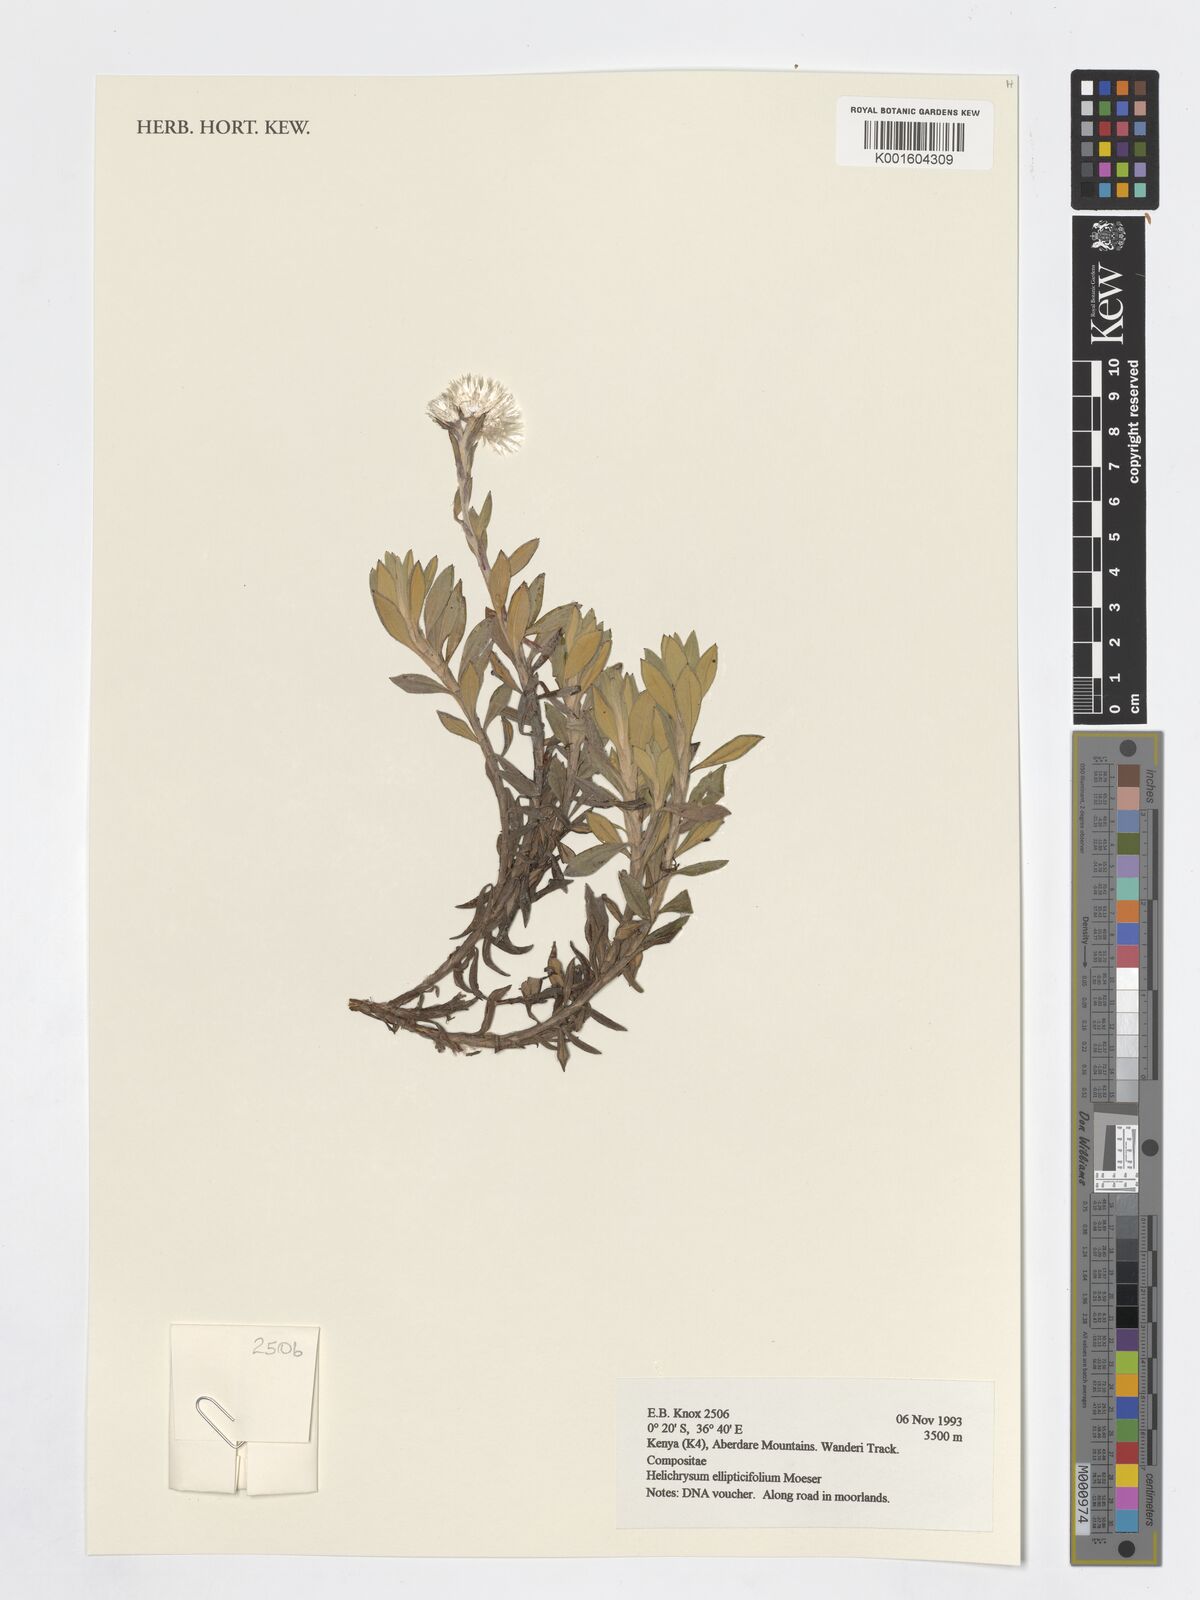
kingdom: Plantae
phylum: Tracheophyta
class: Magnoliopsida
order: Asterales
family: Asteraceae
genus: Helichrysum
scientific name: Helichrysum ellipticifolium
